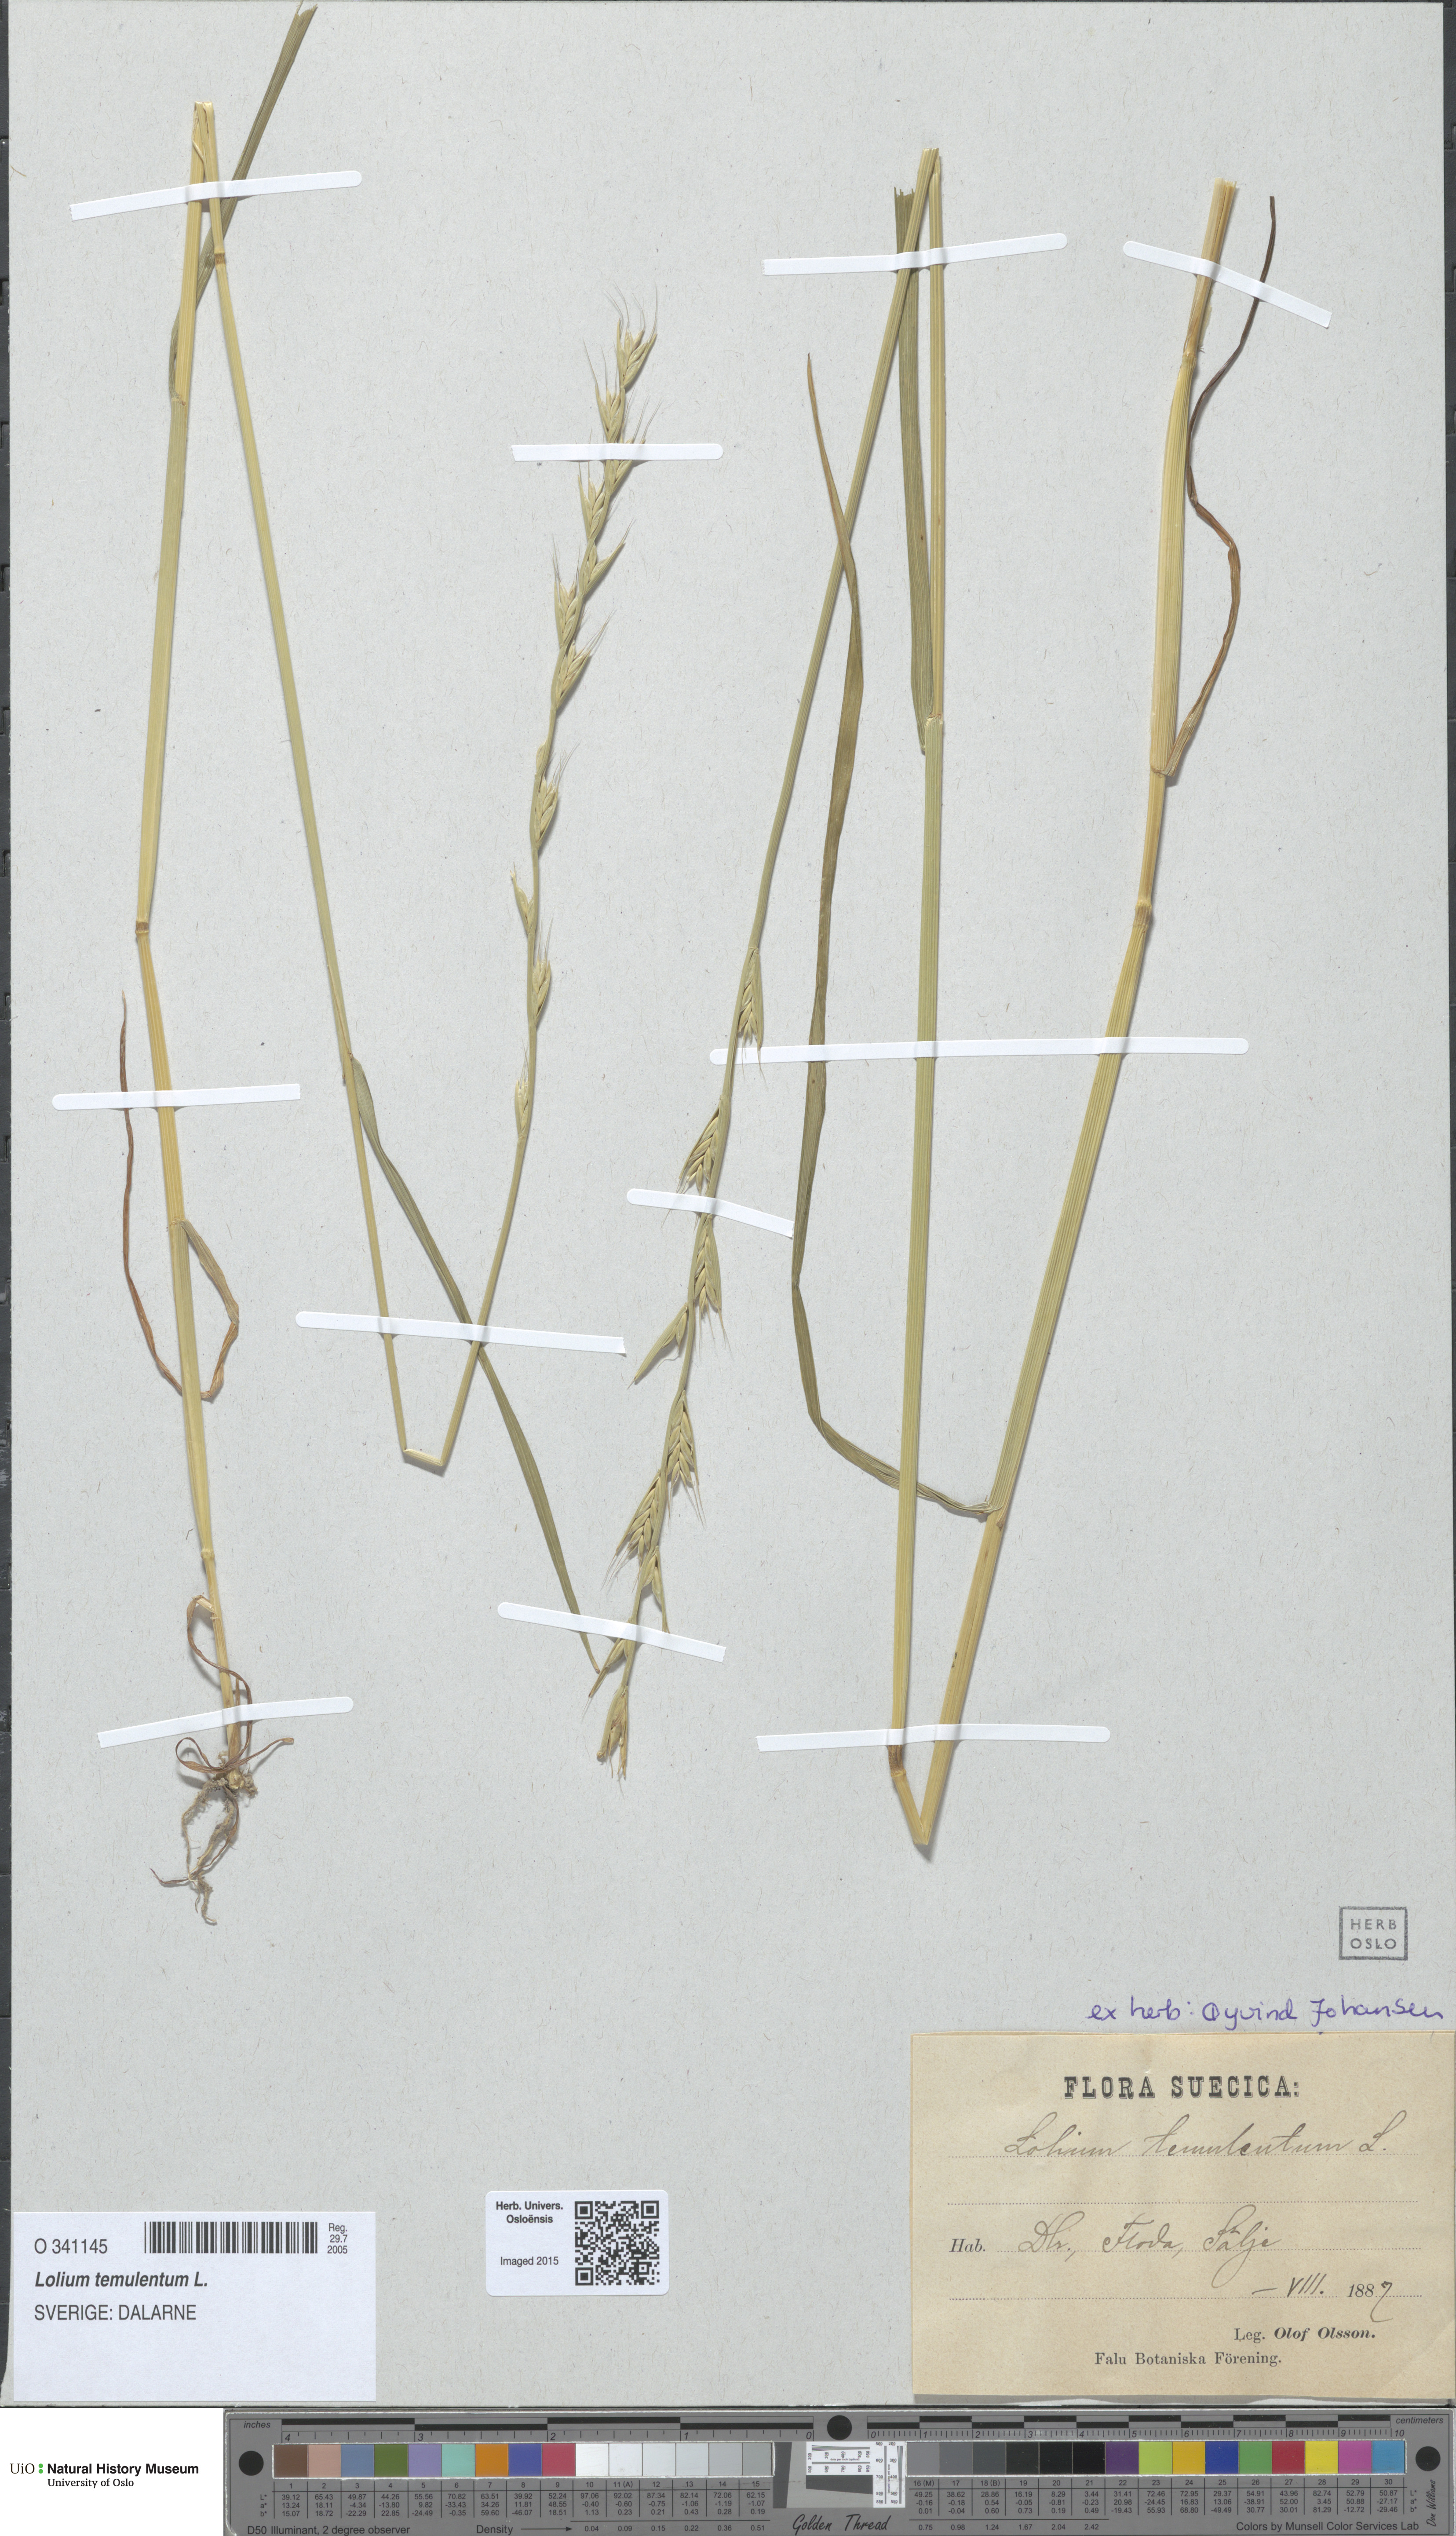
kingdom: Plantae
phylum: Tracheophyta
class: Liliopsida
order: Poales
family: Poaceae
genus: Lolium
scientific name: Lolium temulentum
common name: Darnel
